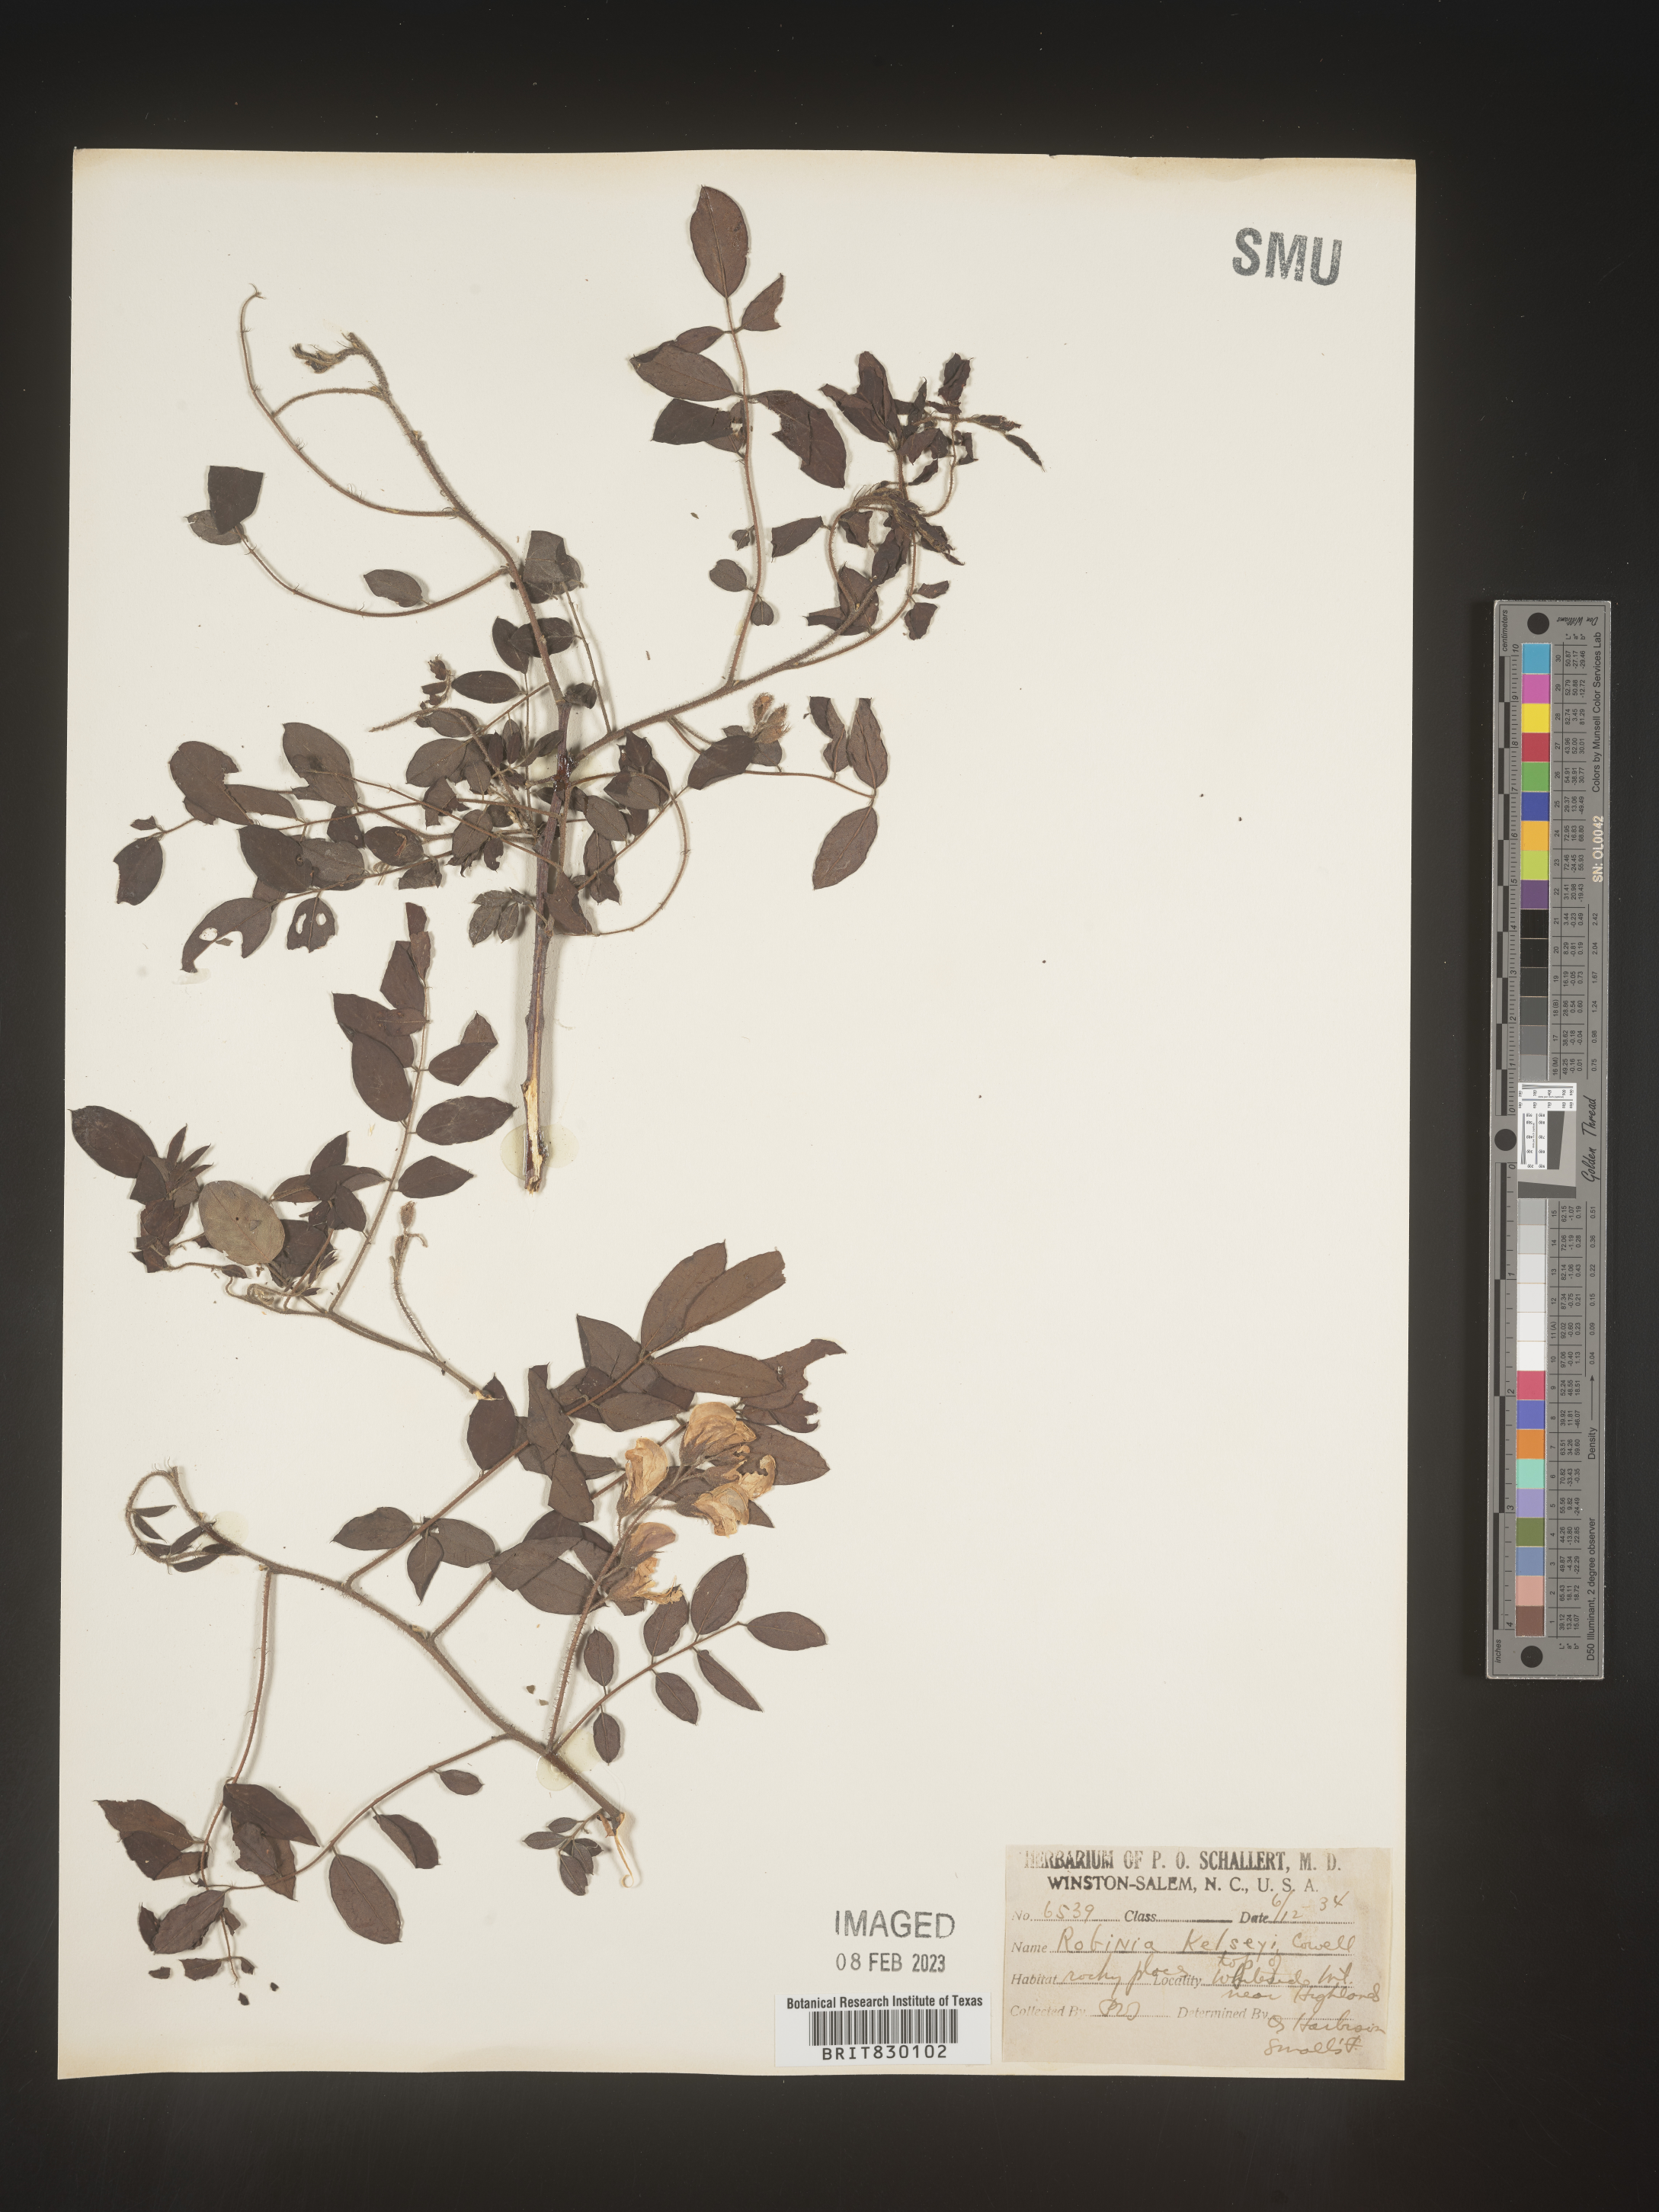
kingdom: Plantae
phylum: Tracheophyta
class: Magnoliopsida
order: Fabales
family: Fabaceae
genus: Robinia
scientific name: Robinia
